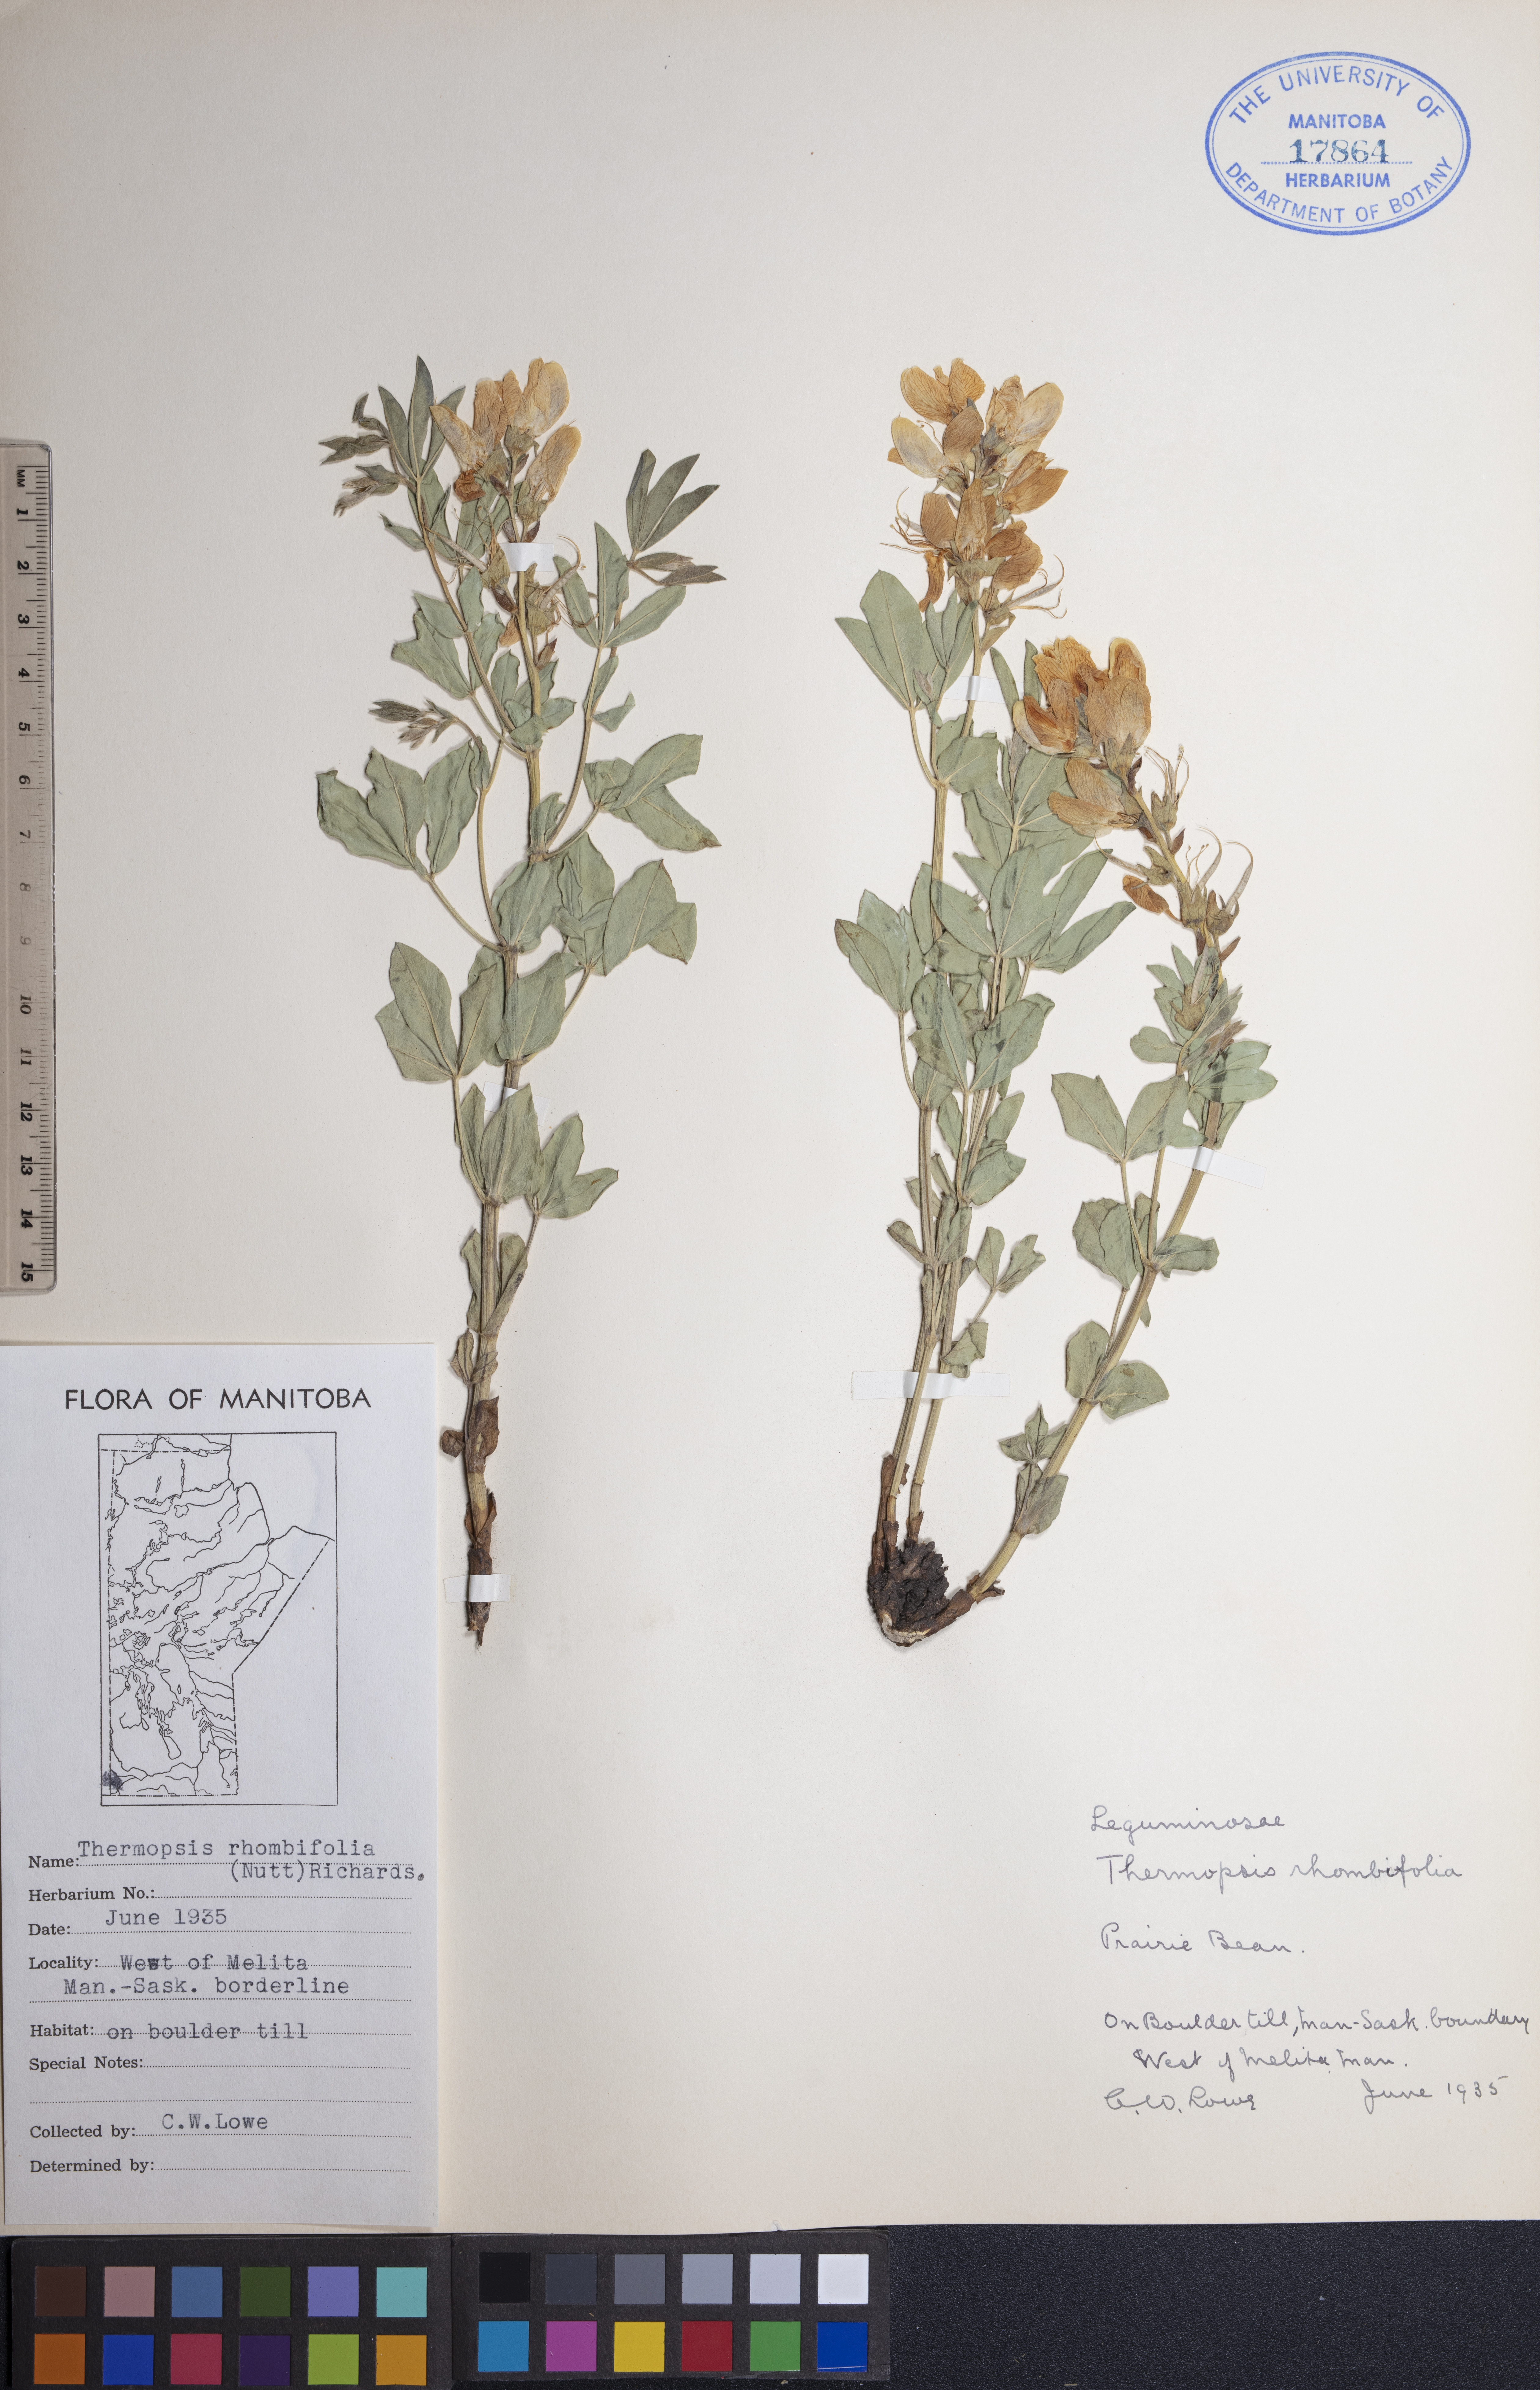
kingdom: Plantae
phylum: Tracheophyta
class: Magnoliopsida
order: Fabales
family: Fabaceae
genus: Thermopsis
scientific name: Thermopsis rhombifolia
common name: Circle-pod-pea
